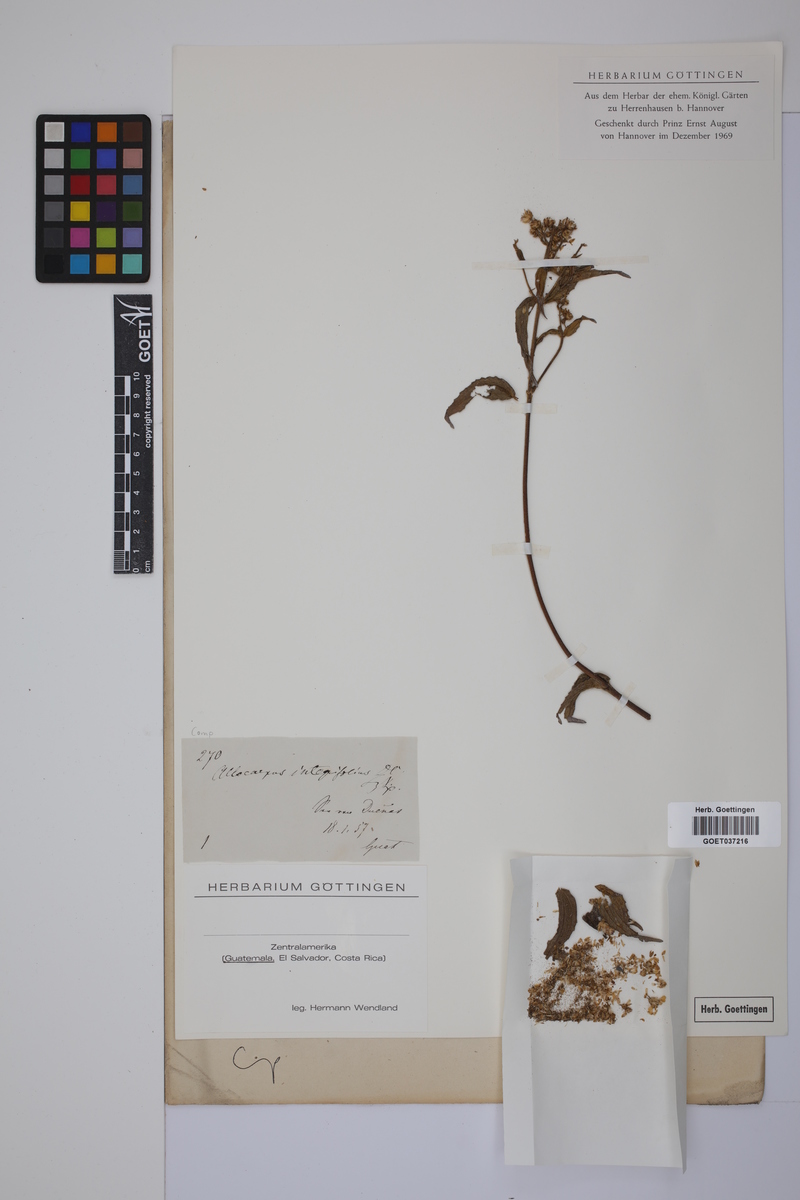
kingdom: Plantae
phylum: Tracheophyta
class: Magnoliopsida
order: Asterales
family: Asteraceae
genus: Alloispermum
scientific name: Alloispermum integrifolium
